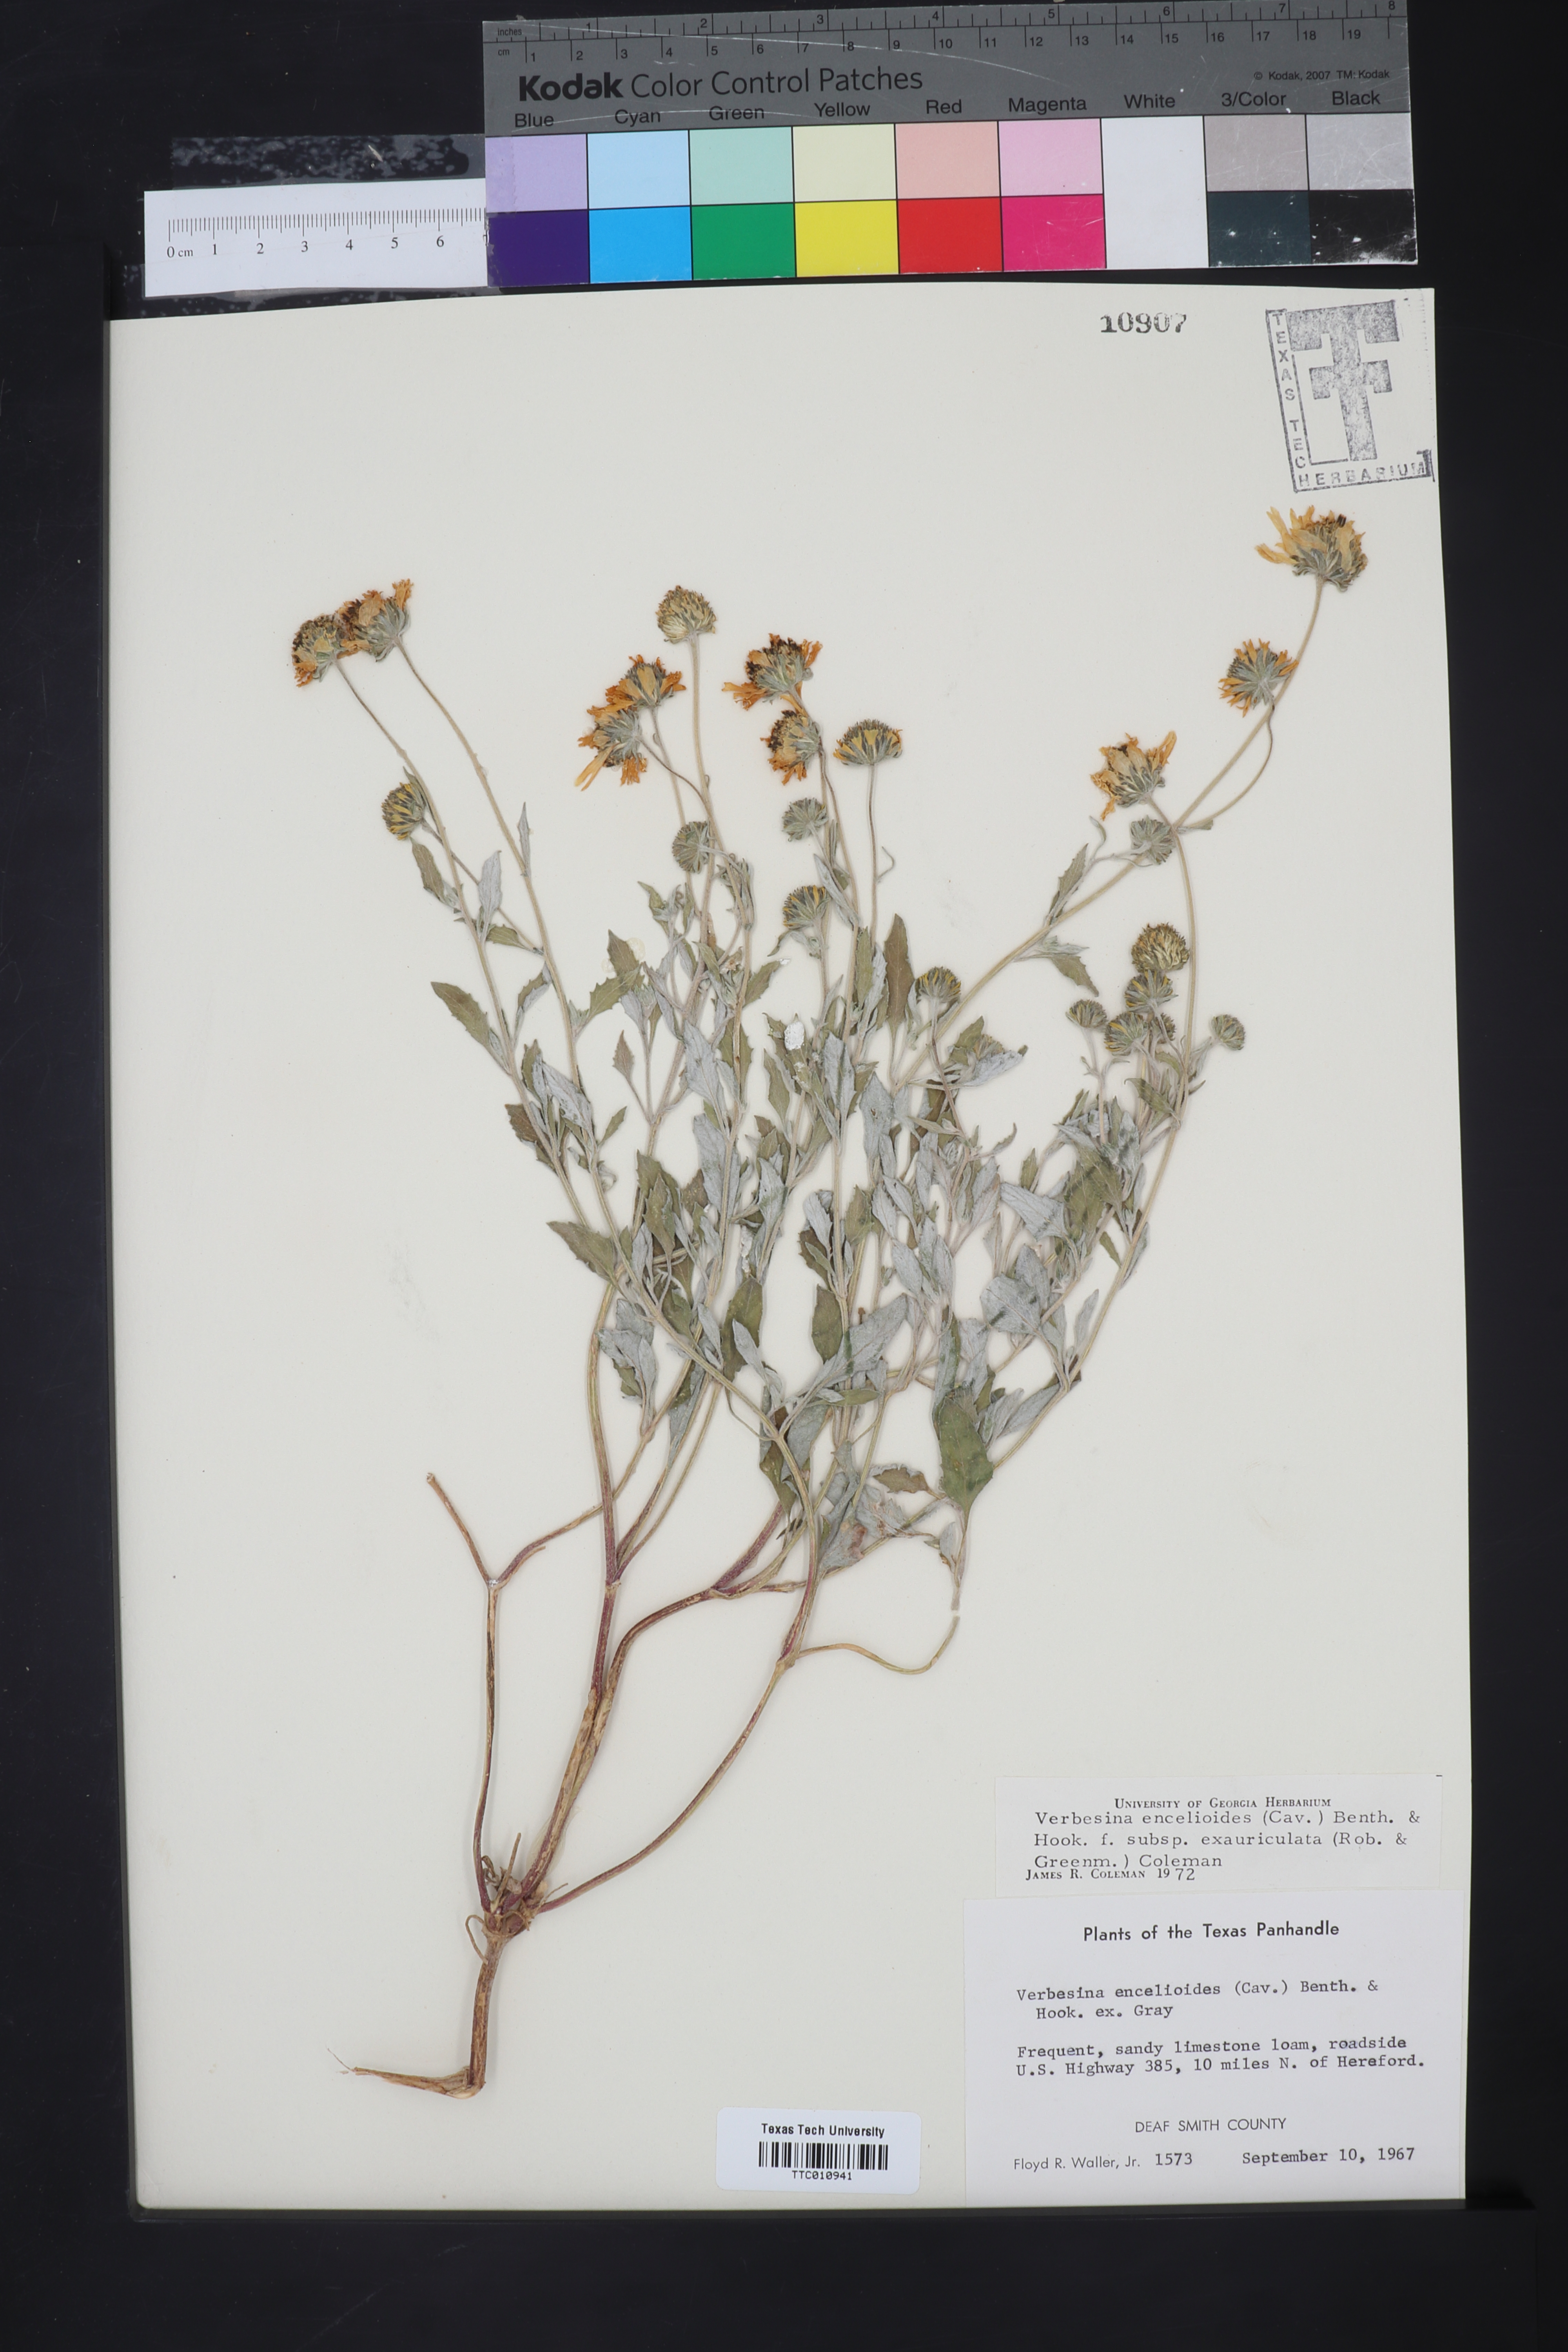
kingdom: Plantae
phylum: Tracheophyta
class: Magnoliopsida
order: Asterales
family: Asteraceae
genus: Verbesina
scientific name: Verbesina encelioides
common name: Golden crownbeard
